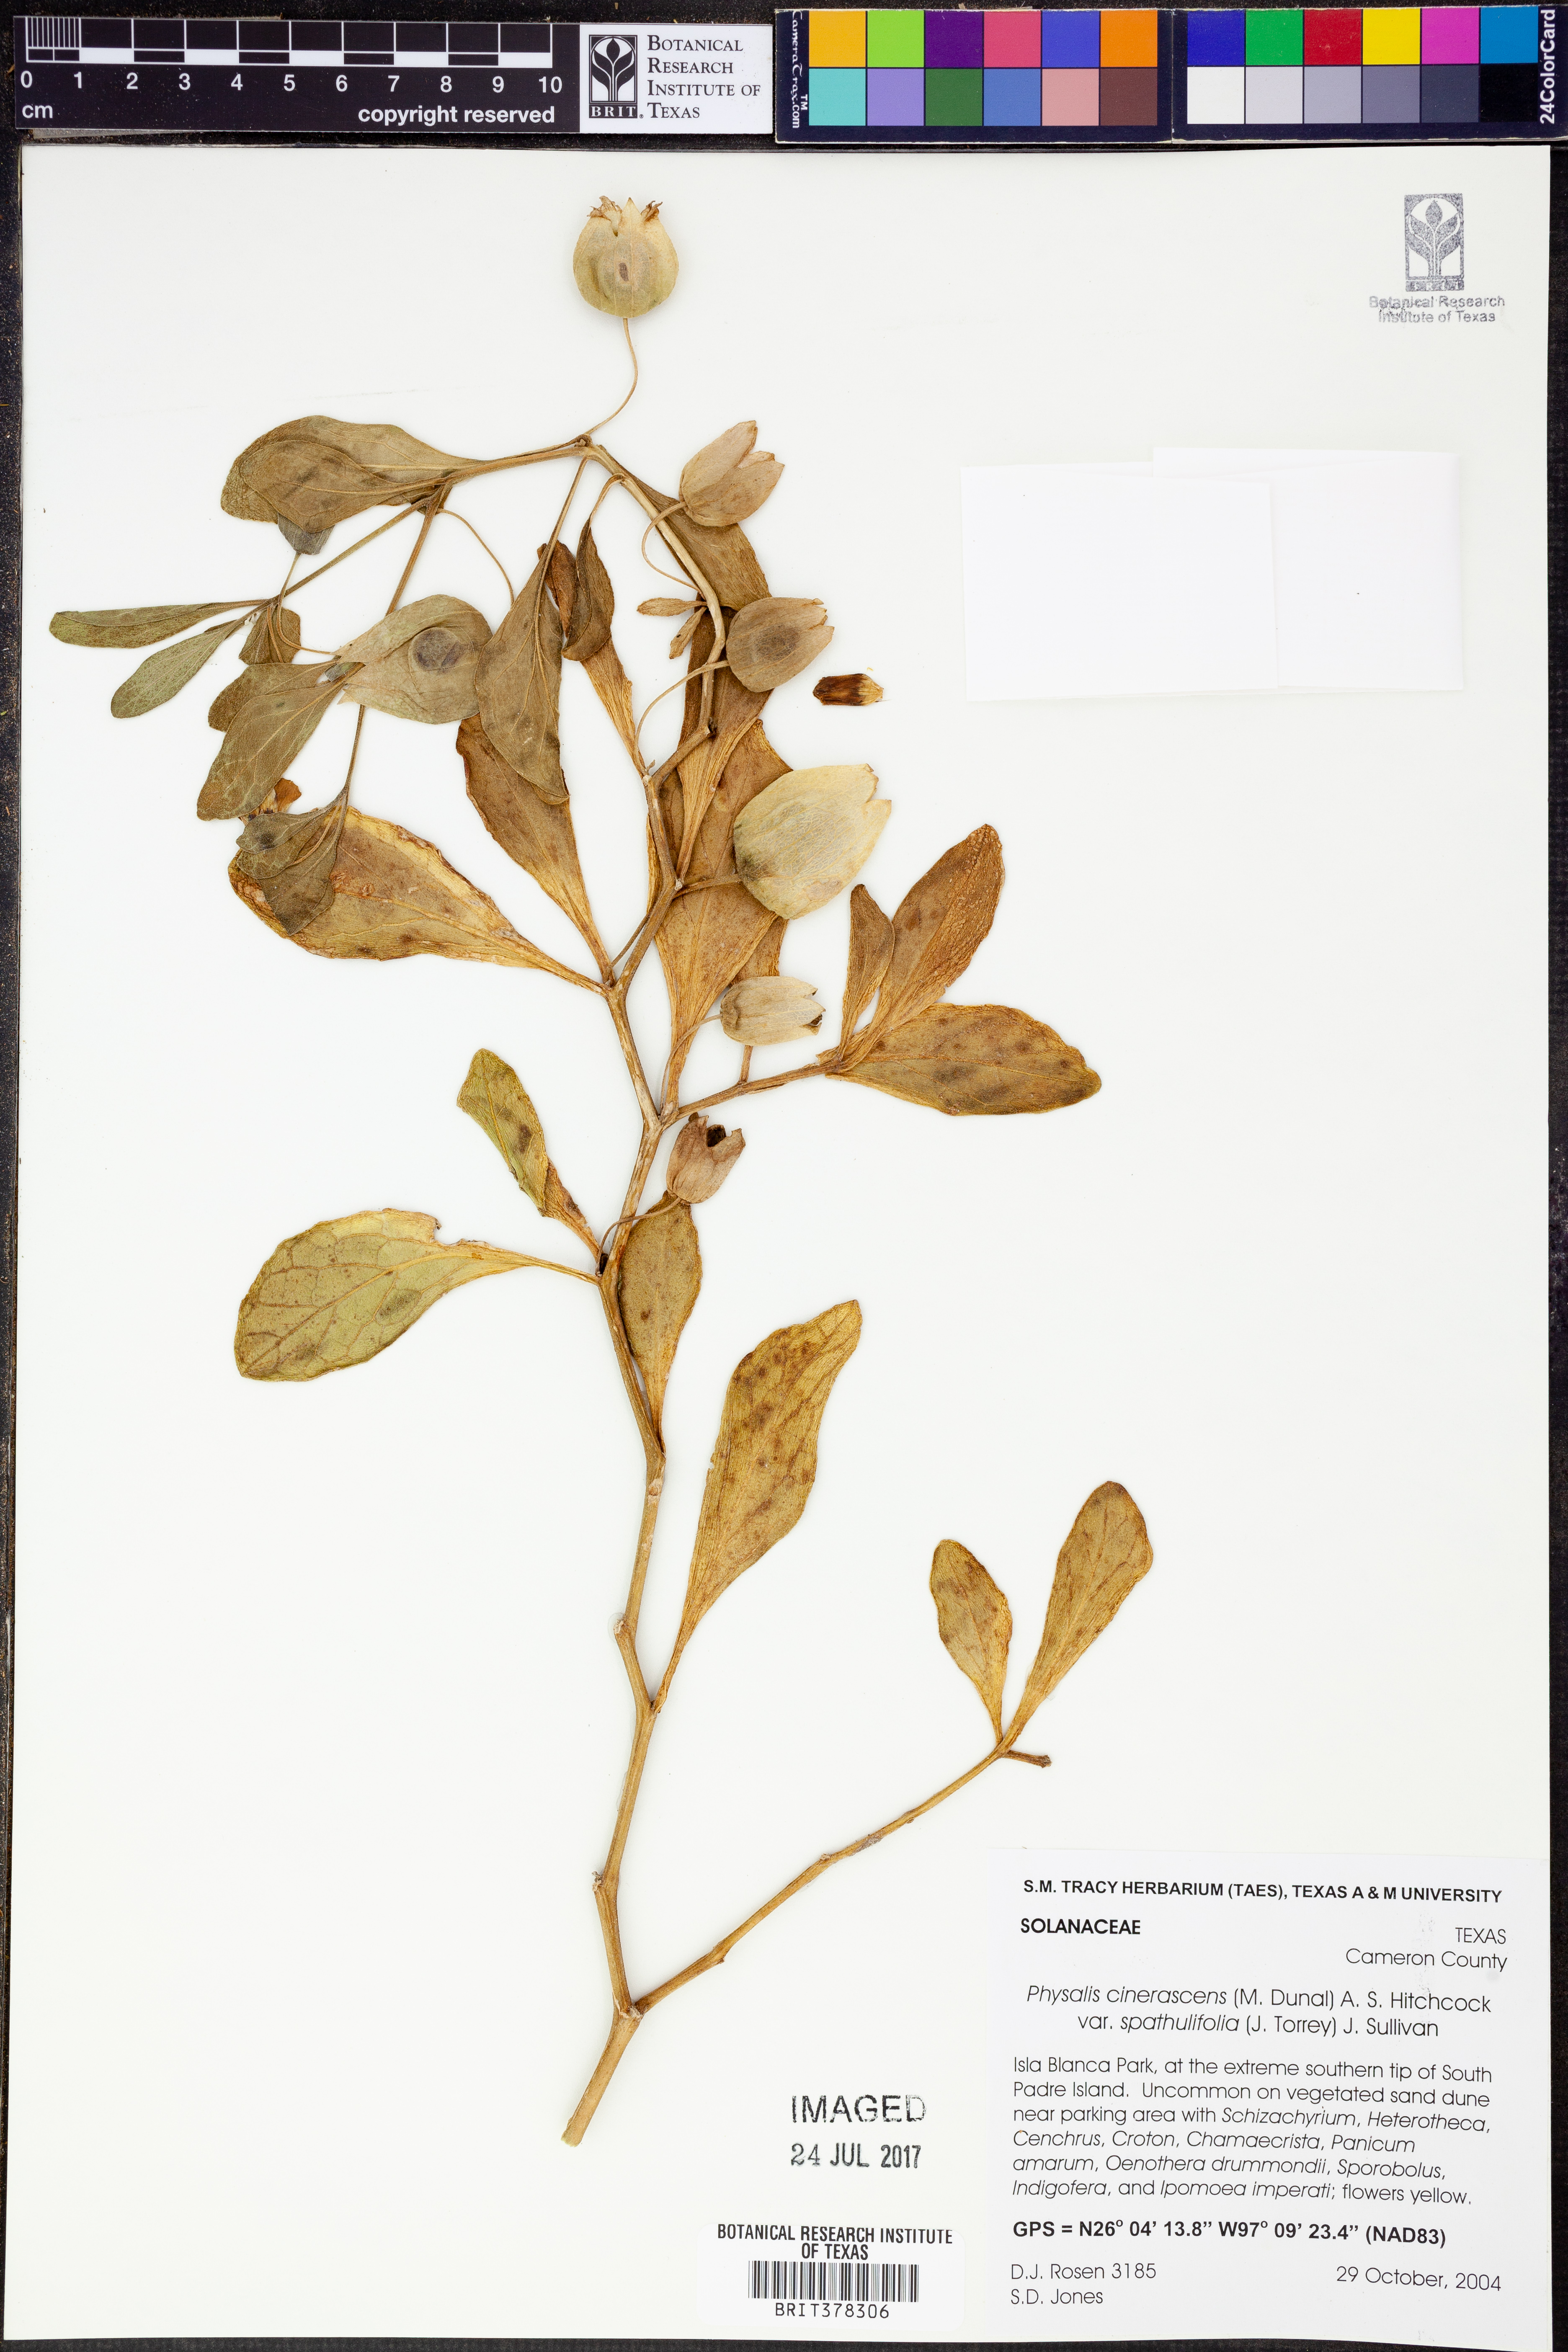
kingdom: Plantae
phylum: Tracheophyta
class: Magnoliopsida
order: Solanales
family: Solanaceae
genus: Physalis
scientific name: Physalis cinerascens
